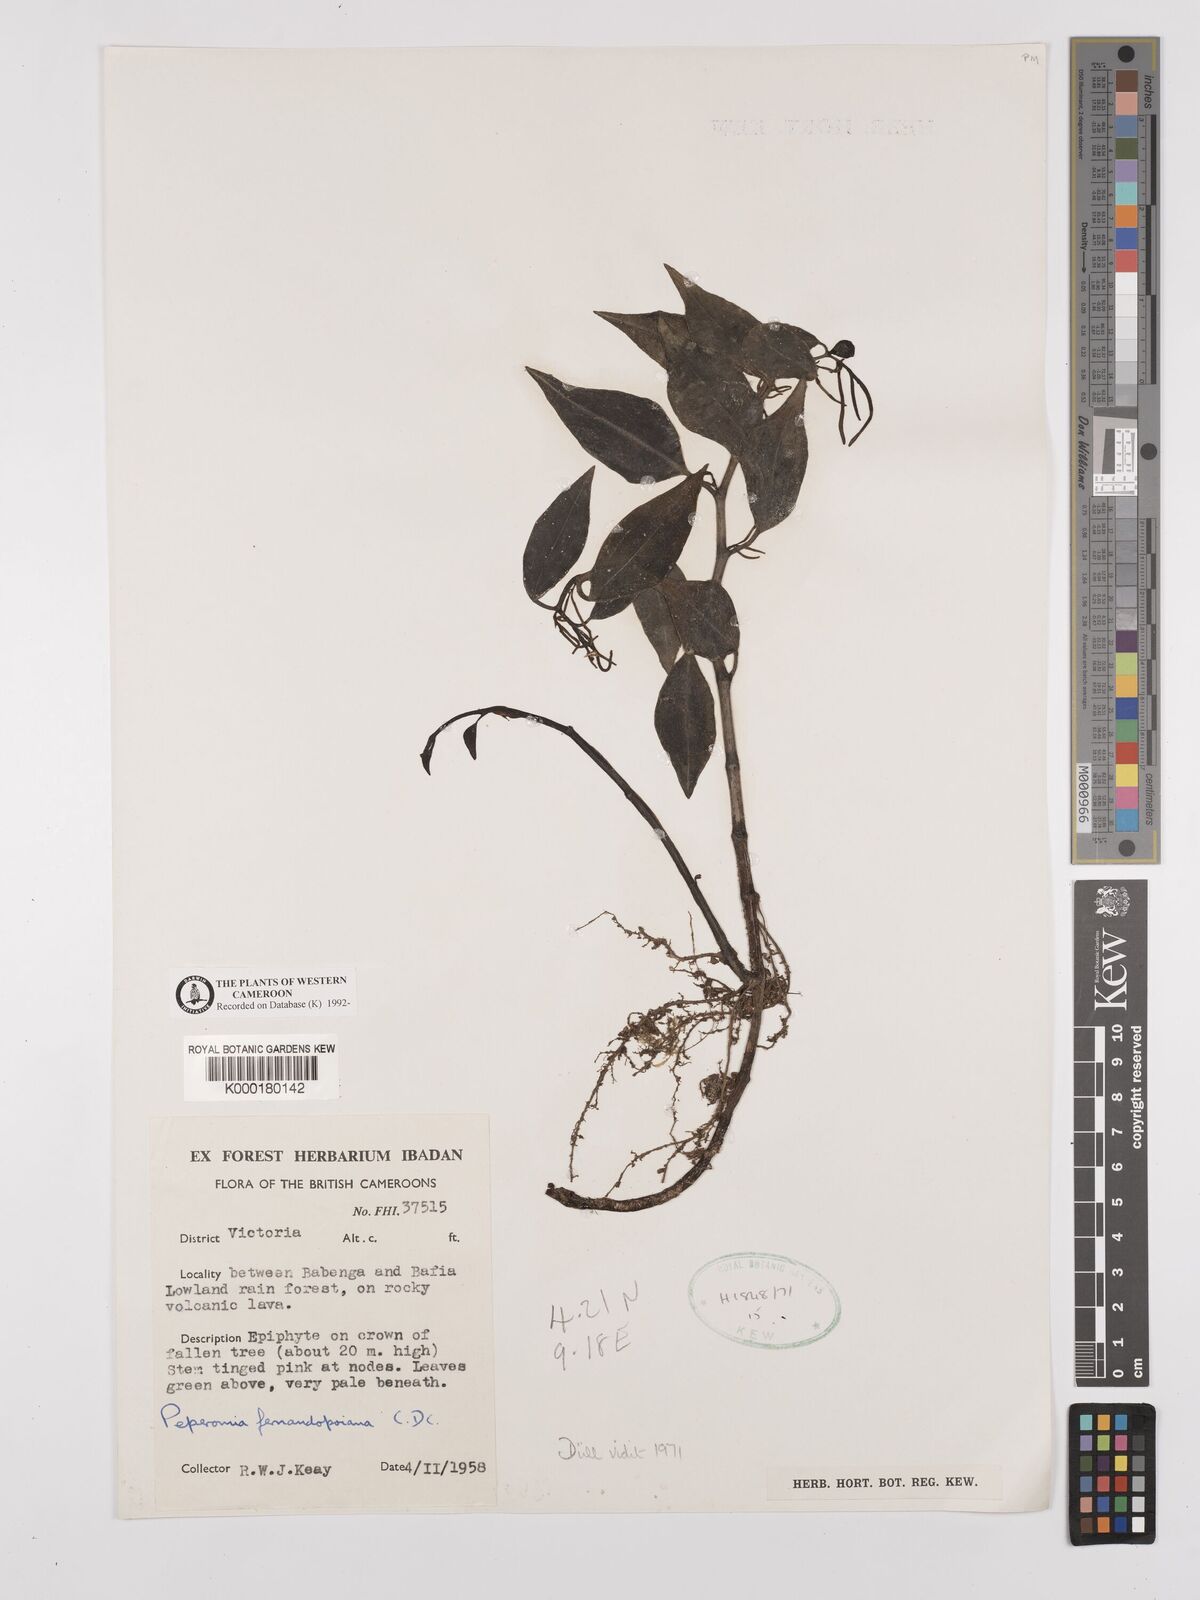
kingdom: Plantae
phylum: Tracheophyta
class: Magnoliopsida
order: Piperales
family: Piperaceae
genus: Peperomia
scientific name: Peperomia fernandopoiana
